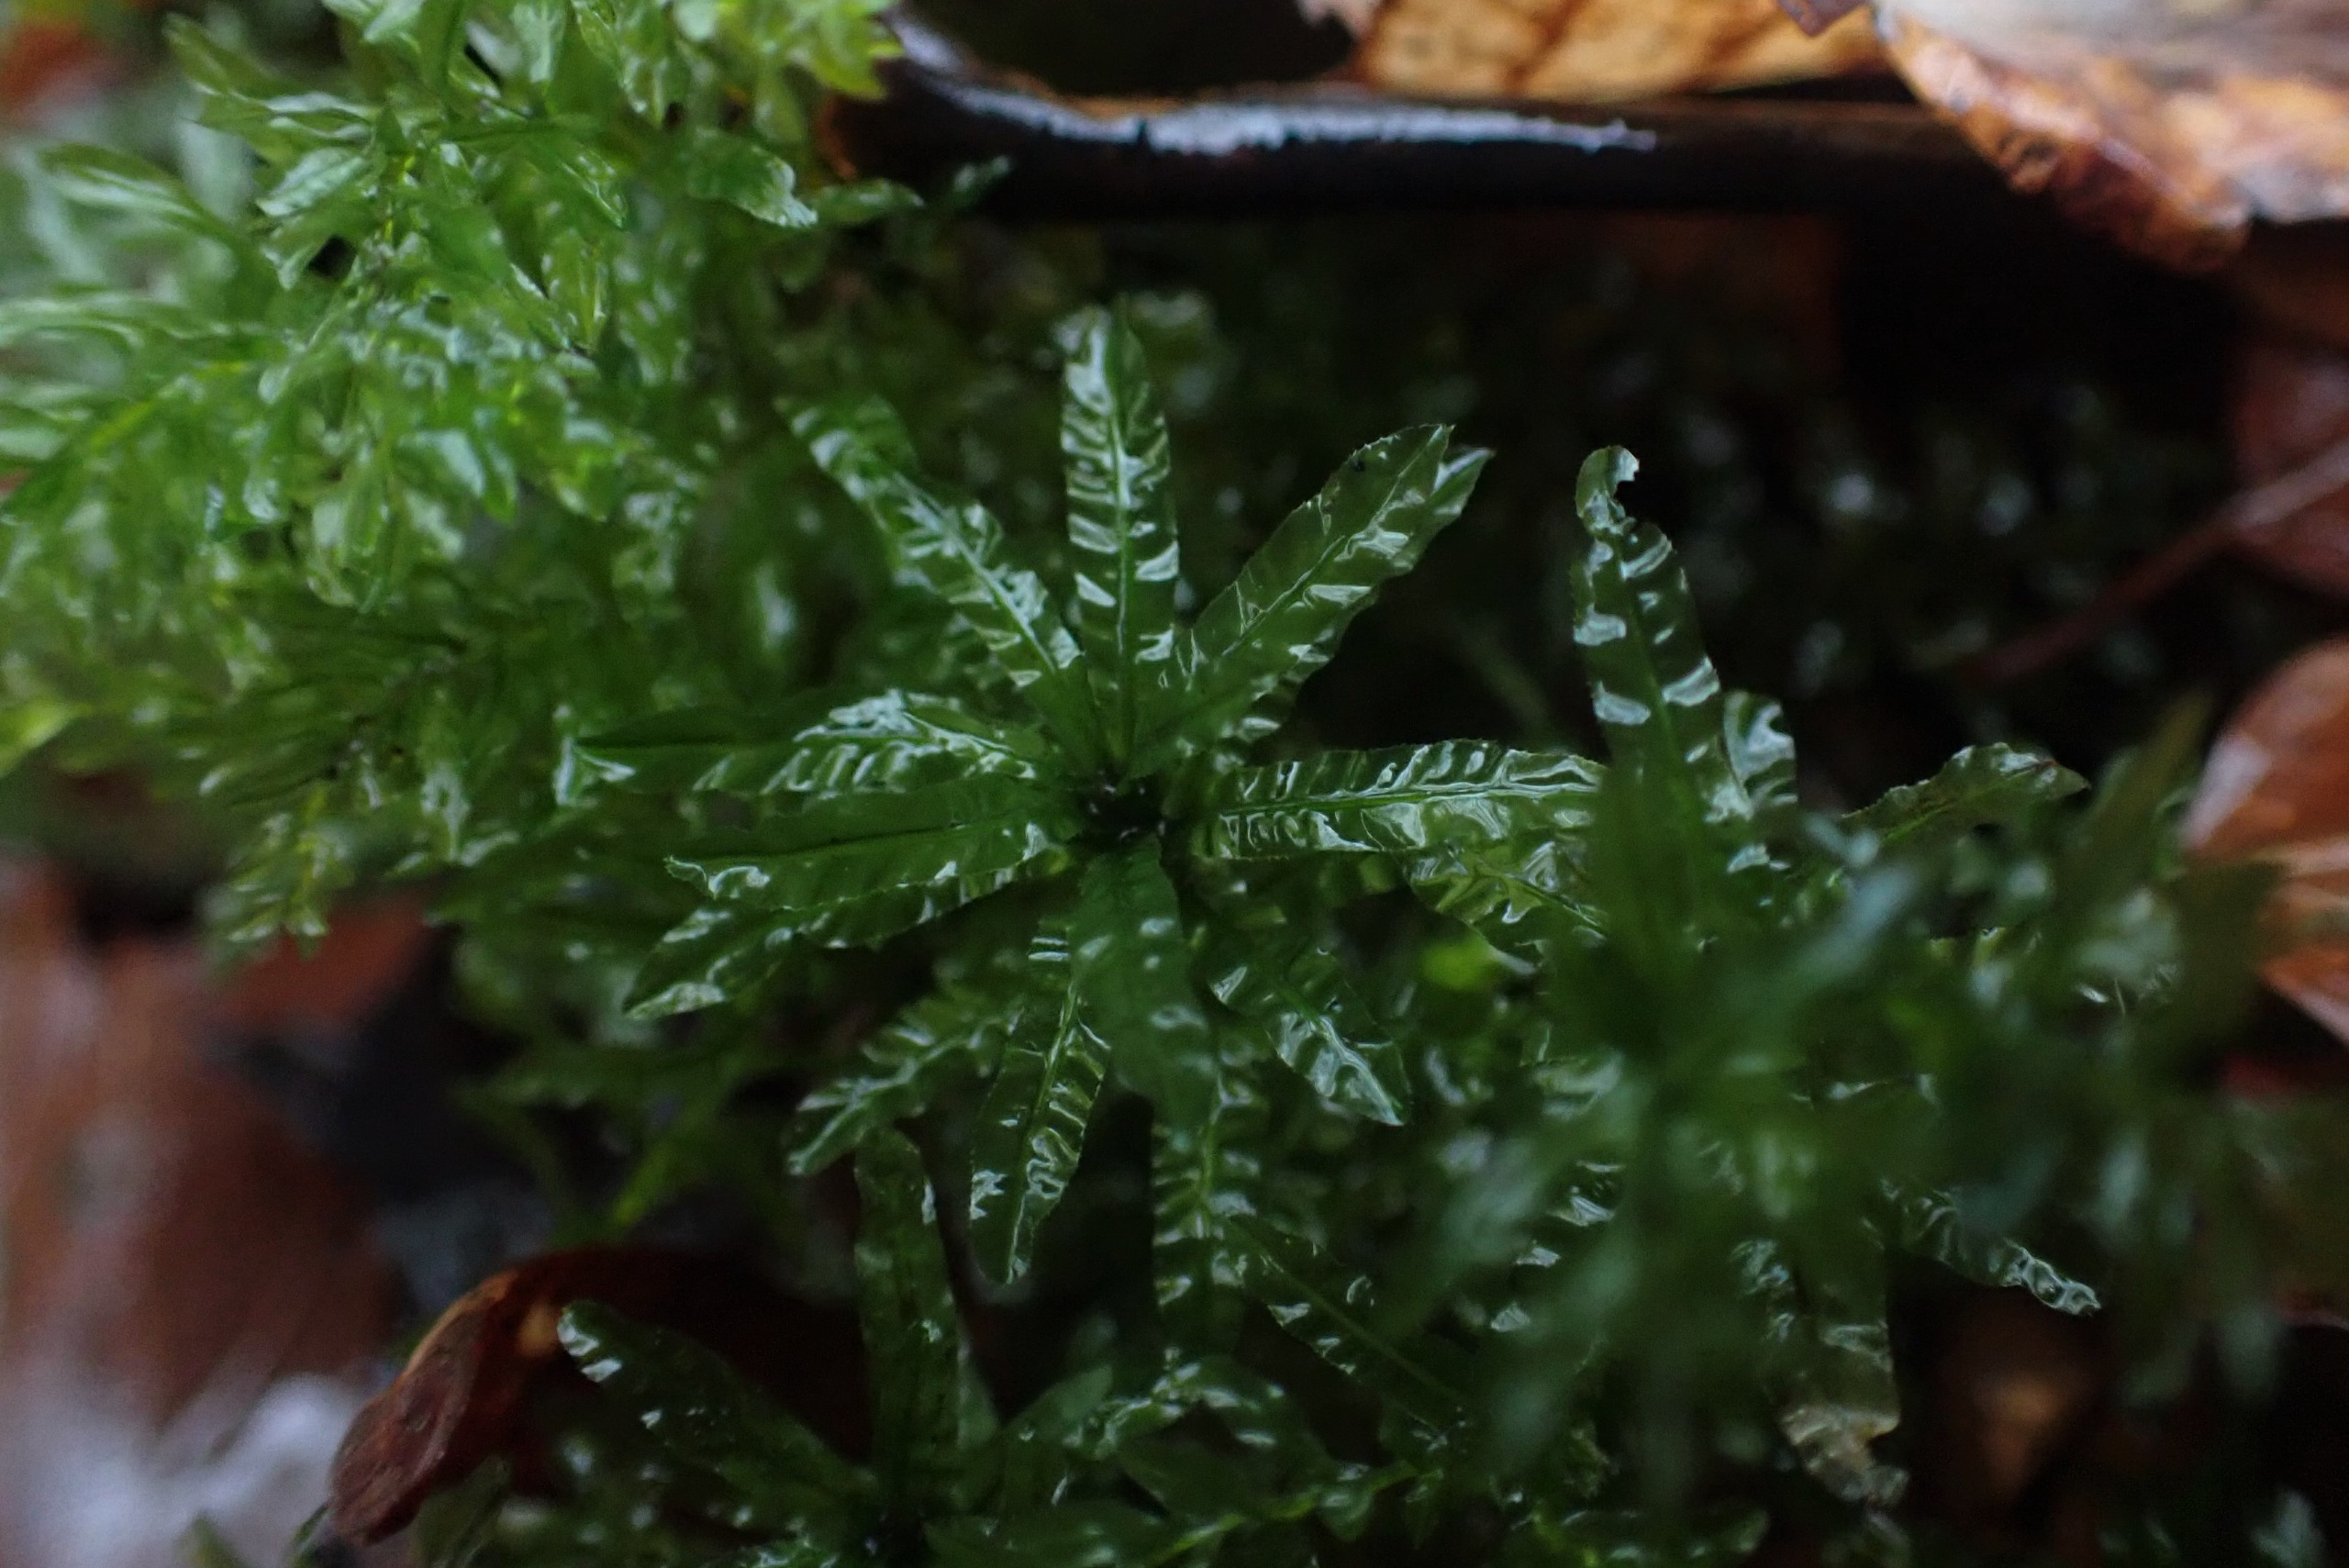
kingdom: Plantae
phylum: Bryophyta
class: Bryopsida
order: Bryales
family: Mniaceae
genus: Plagiomnium
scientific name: Plagiomnium undulatum
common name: Bølget krybstjerne
